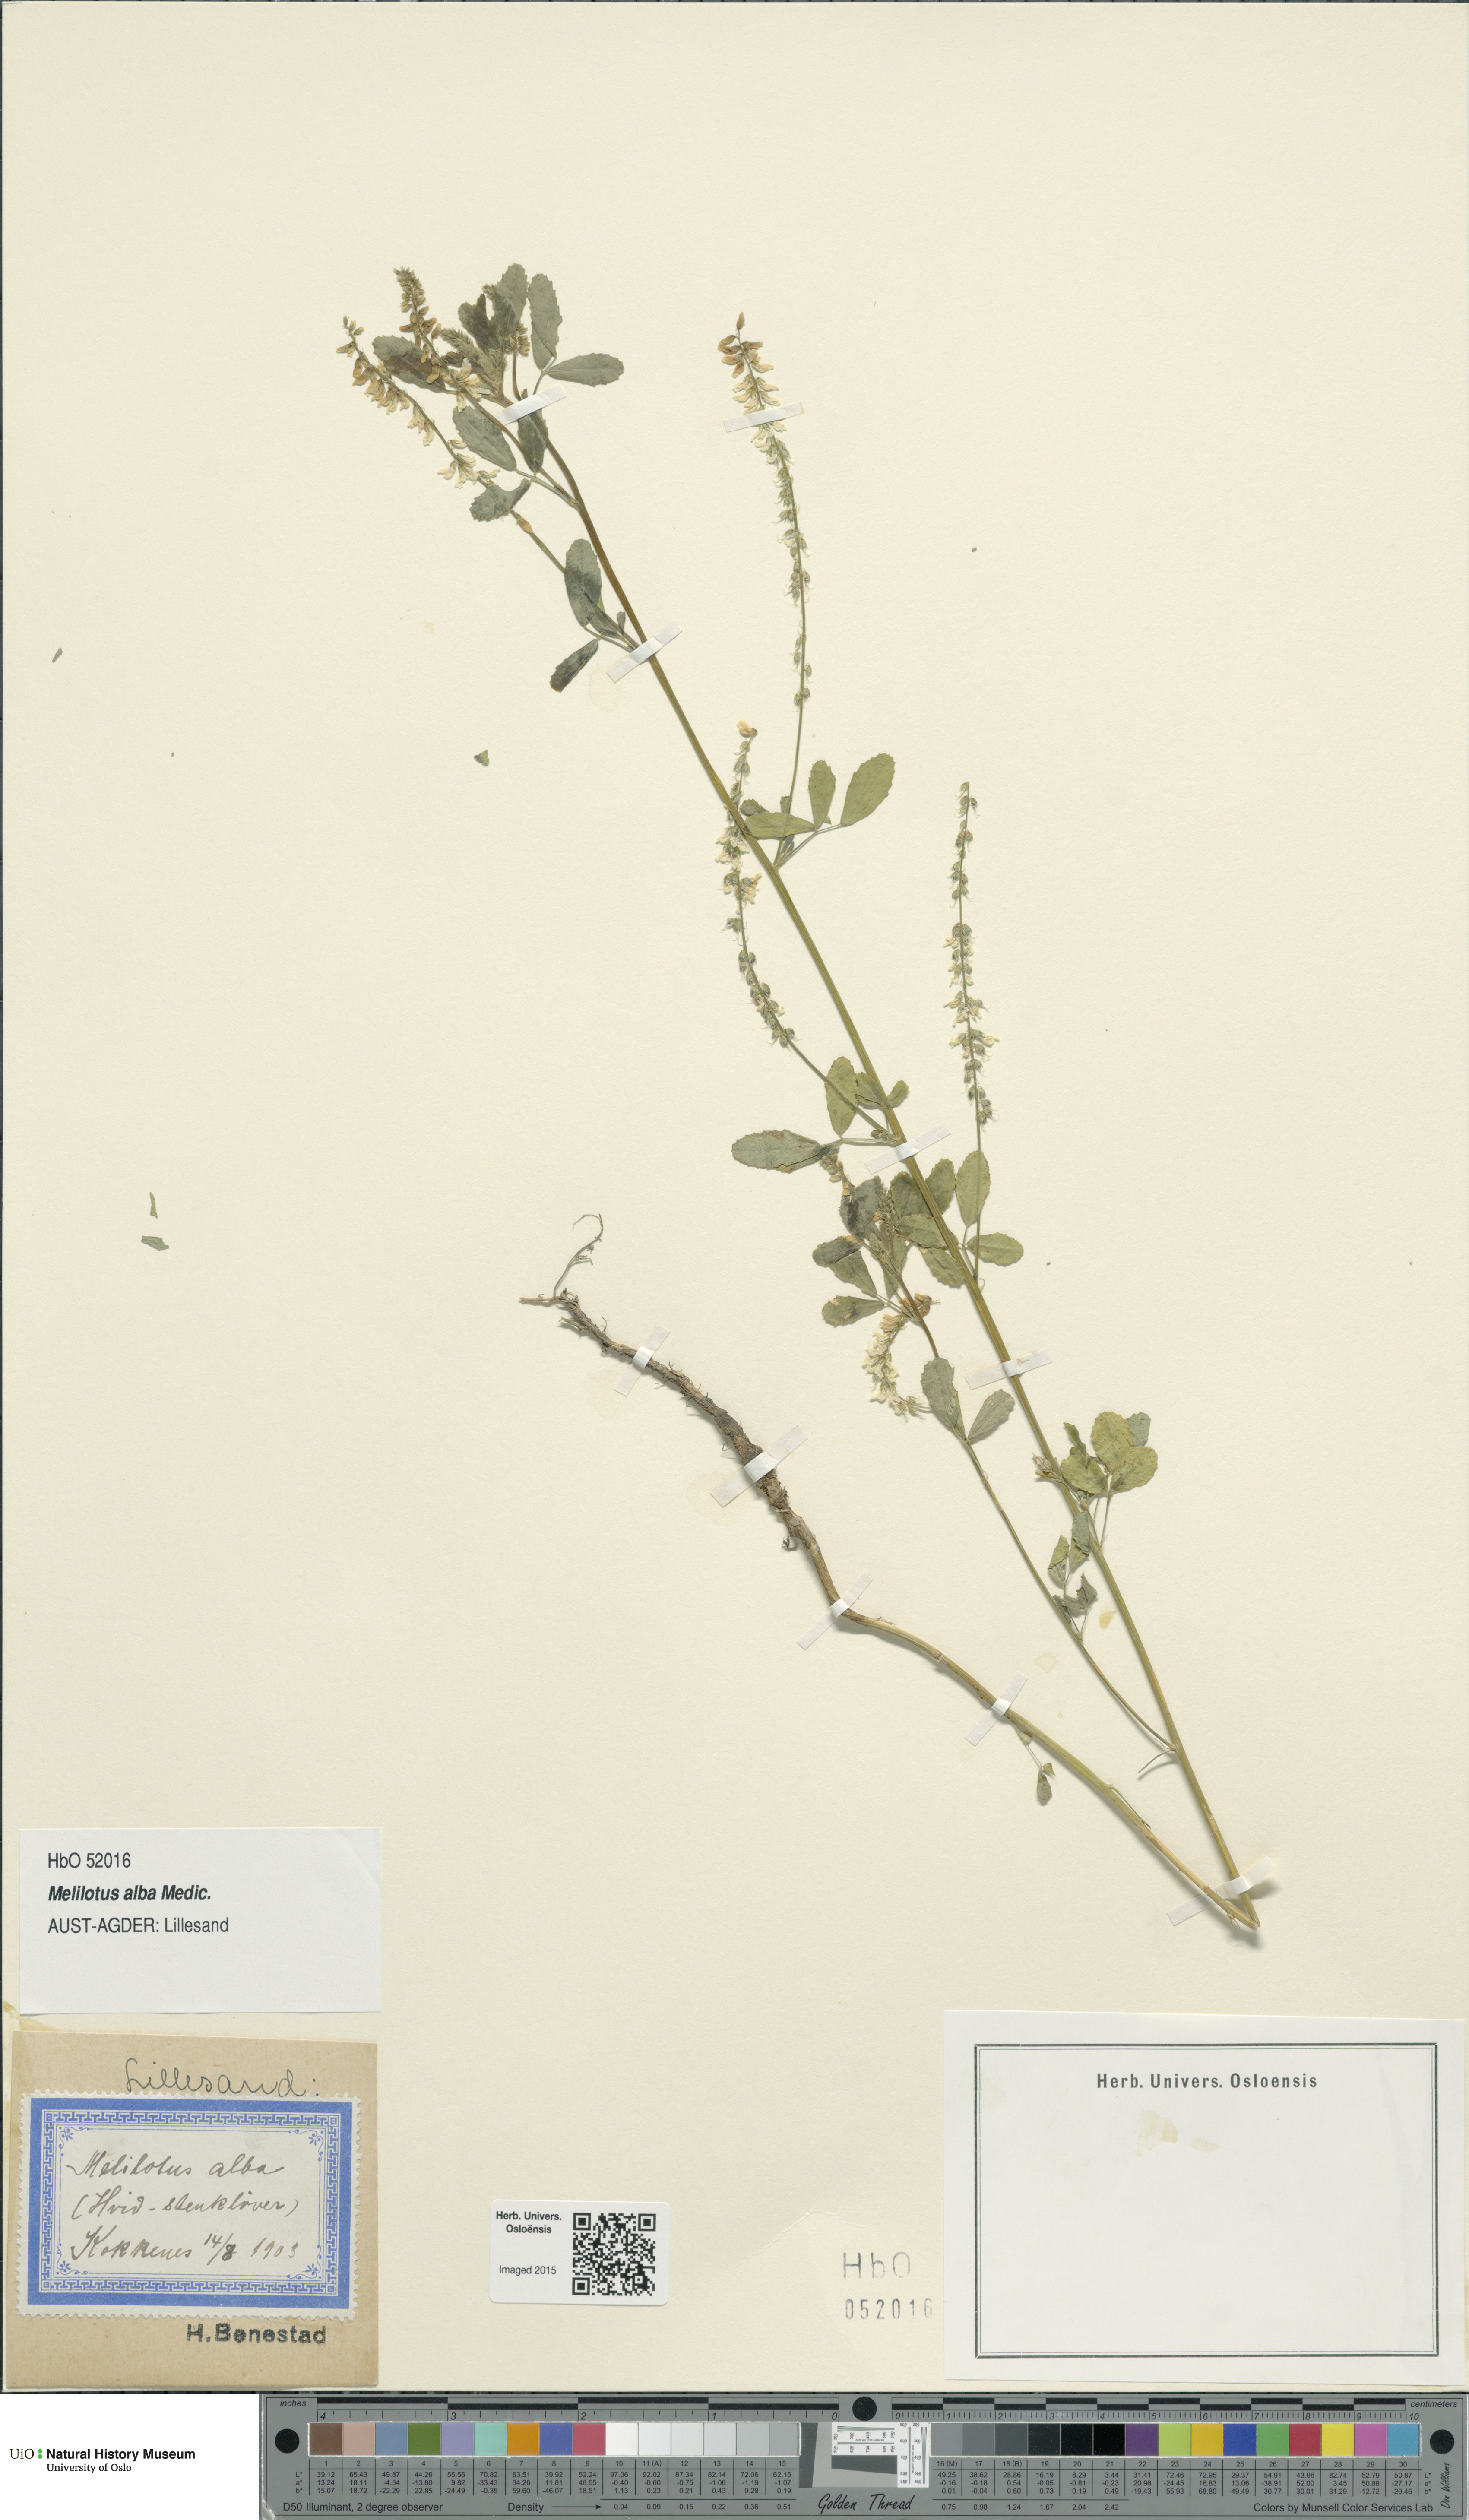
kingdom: Plantae
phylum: Tracheophyta
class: Magnoliopsida
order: Fabales
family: Fabaceae
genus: Melilotus
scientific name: Melilotus albus
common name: White melilot
